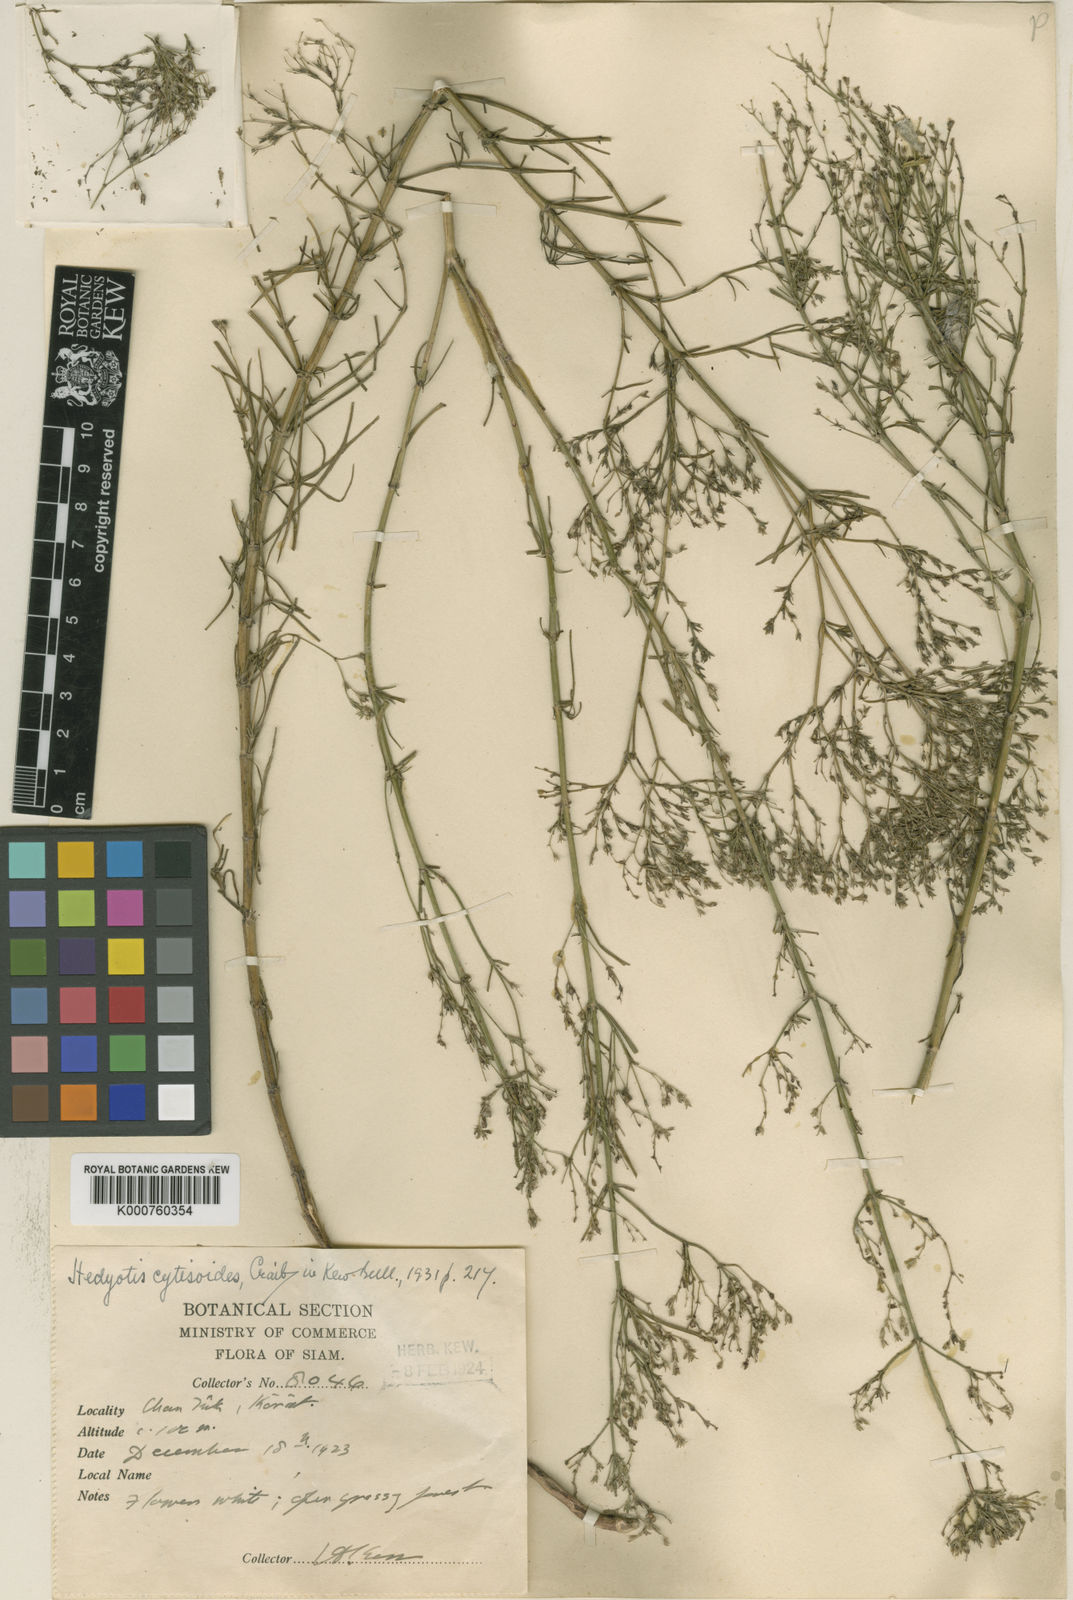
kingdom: Plantae
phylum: Tracheophyta
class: Magnoliopsida
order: Gentianales
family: Rubiaceae
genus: Hedyotis
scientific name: Hedyotis scoparia
